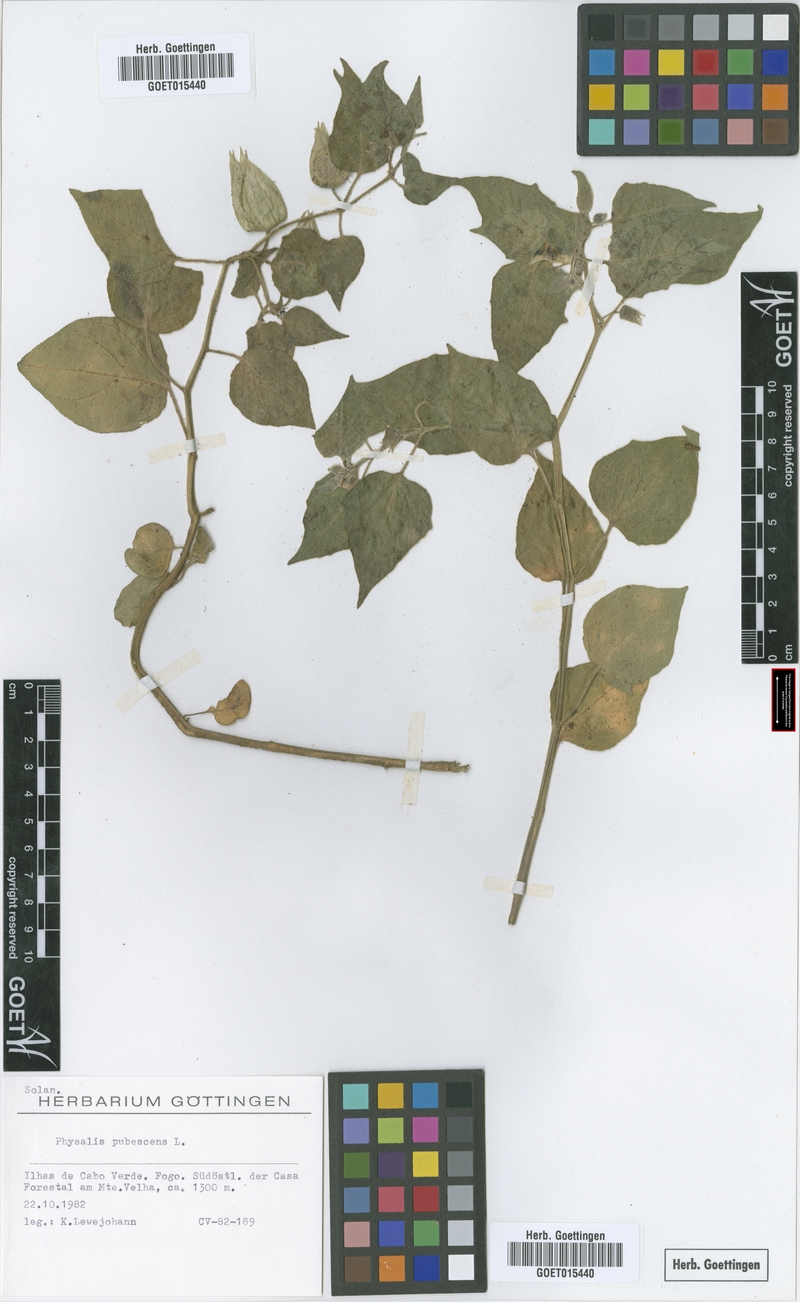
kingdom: Plantae
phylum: Tracheophyta
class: Magnoliopsida
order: Solanales
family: Solanaceae
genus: Physalis
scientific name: Physalis pubescens
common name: Downy ground-cherry
